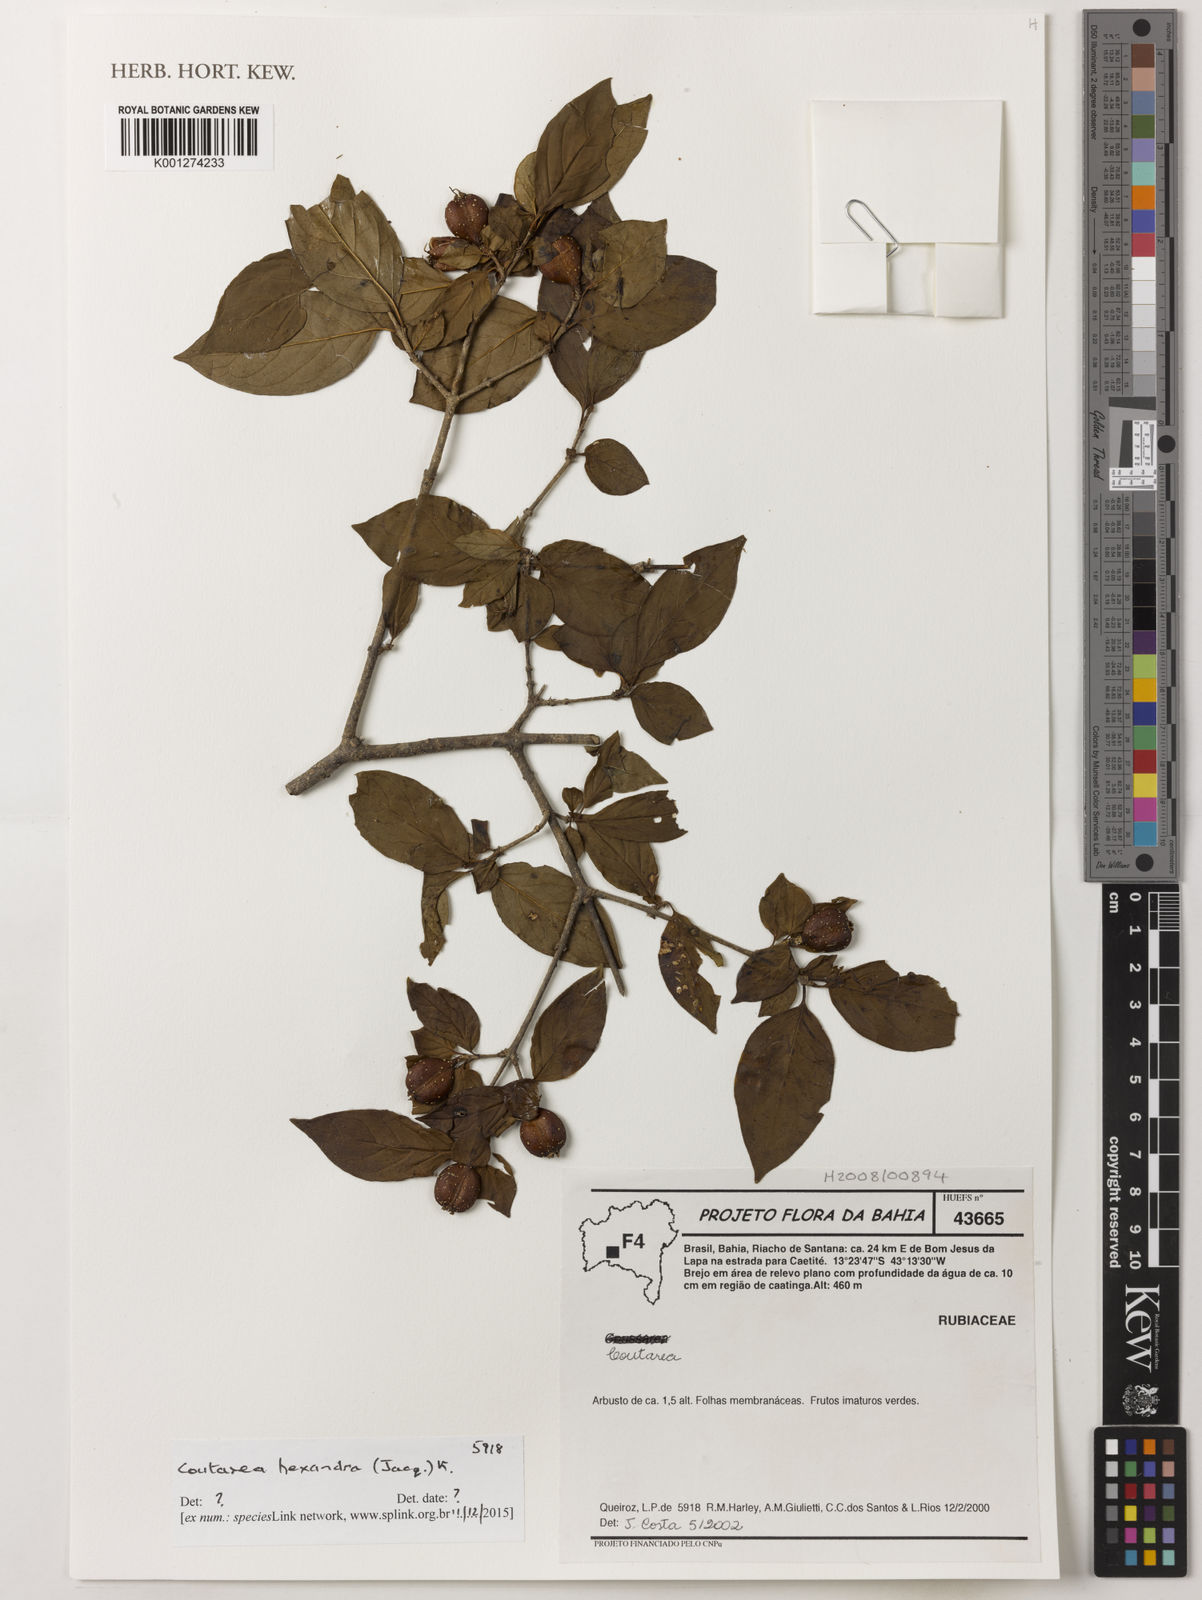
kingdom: Plantae
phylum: Tracheophyta
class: Magnoliopsida
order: Gentianales
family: Rubiaceae
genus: Coutarea
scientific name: Coutarea hexandra
